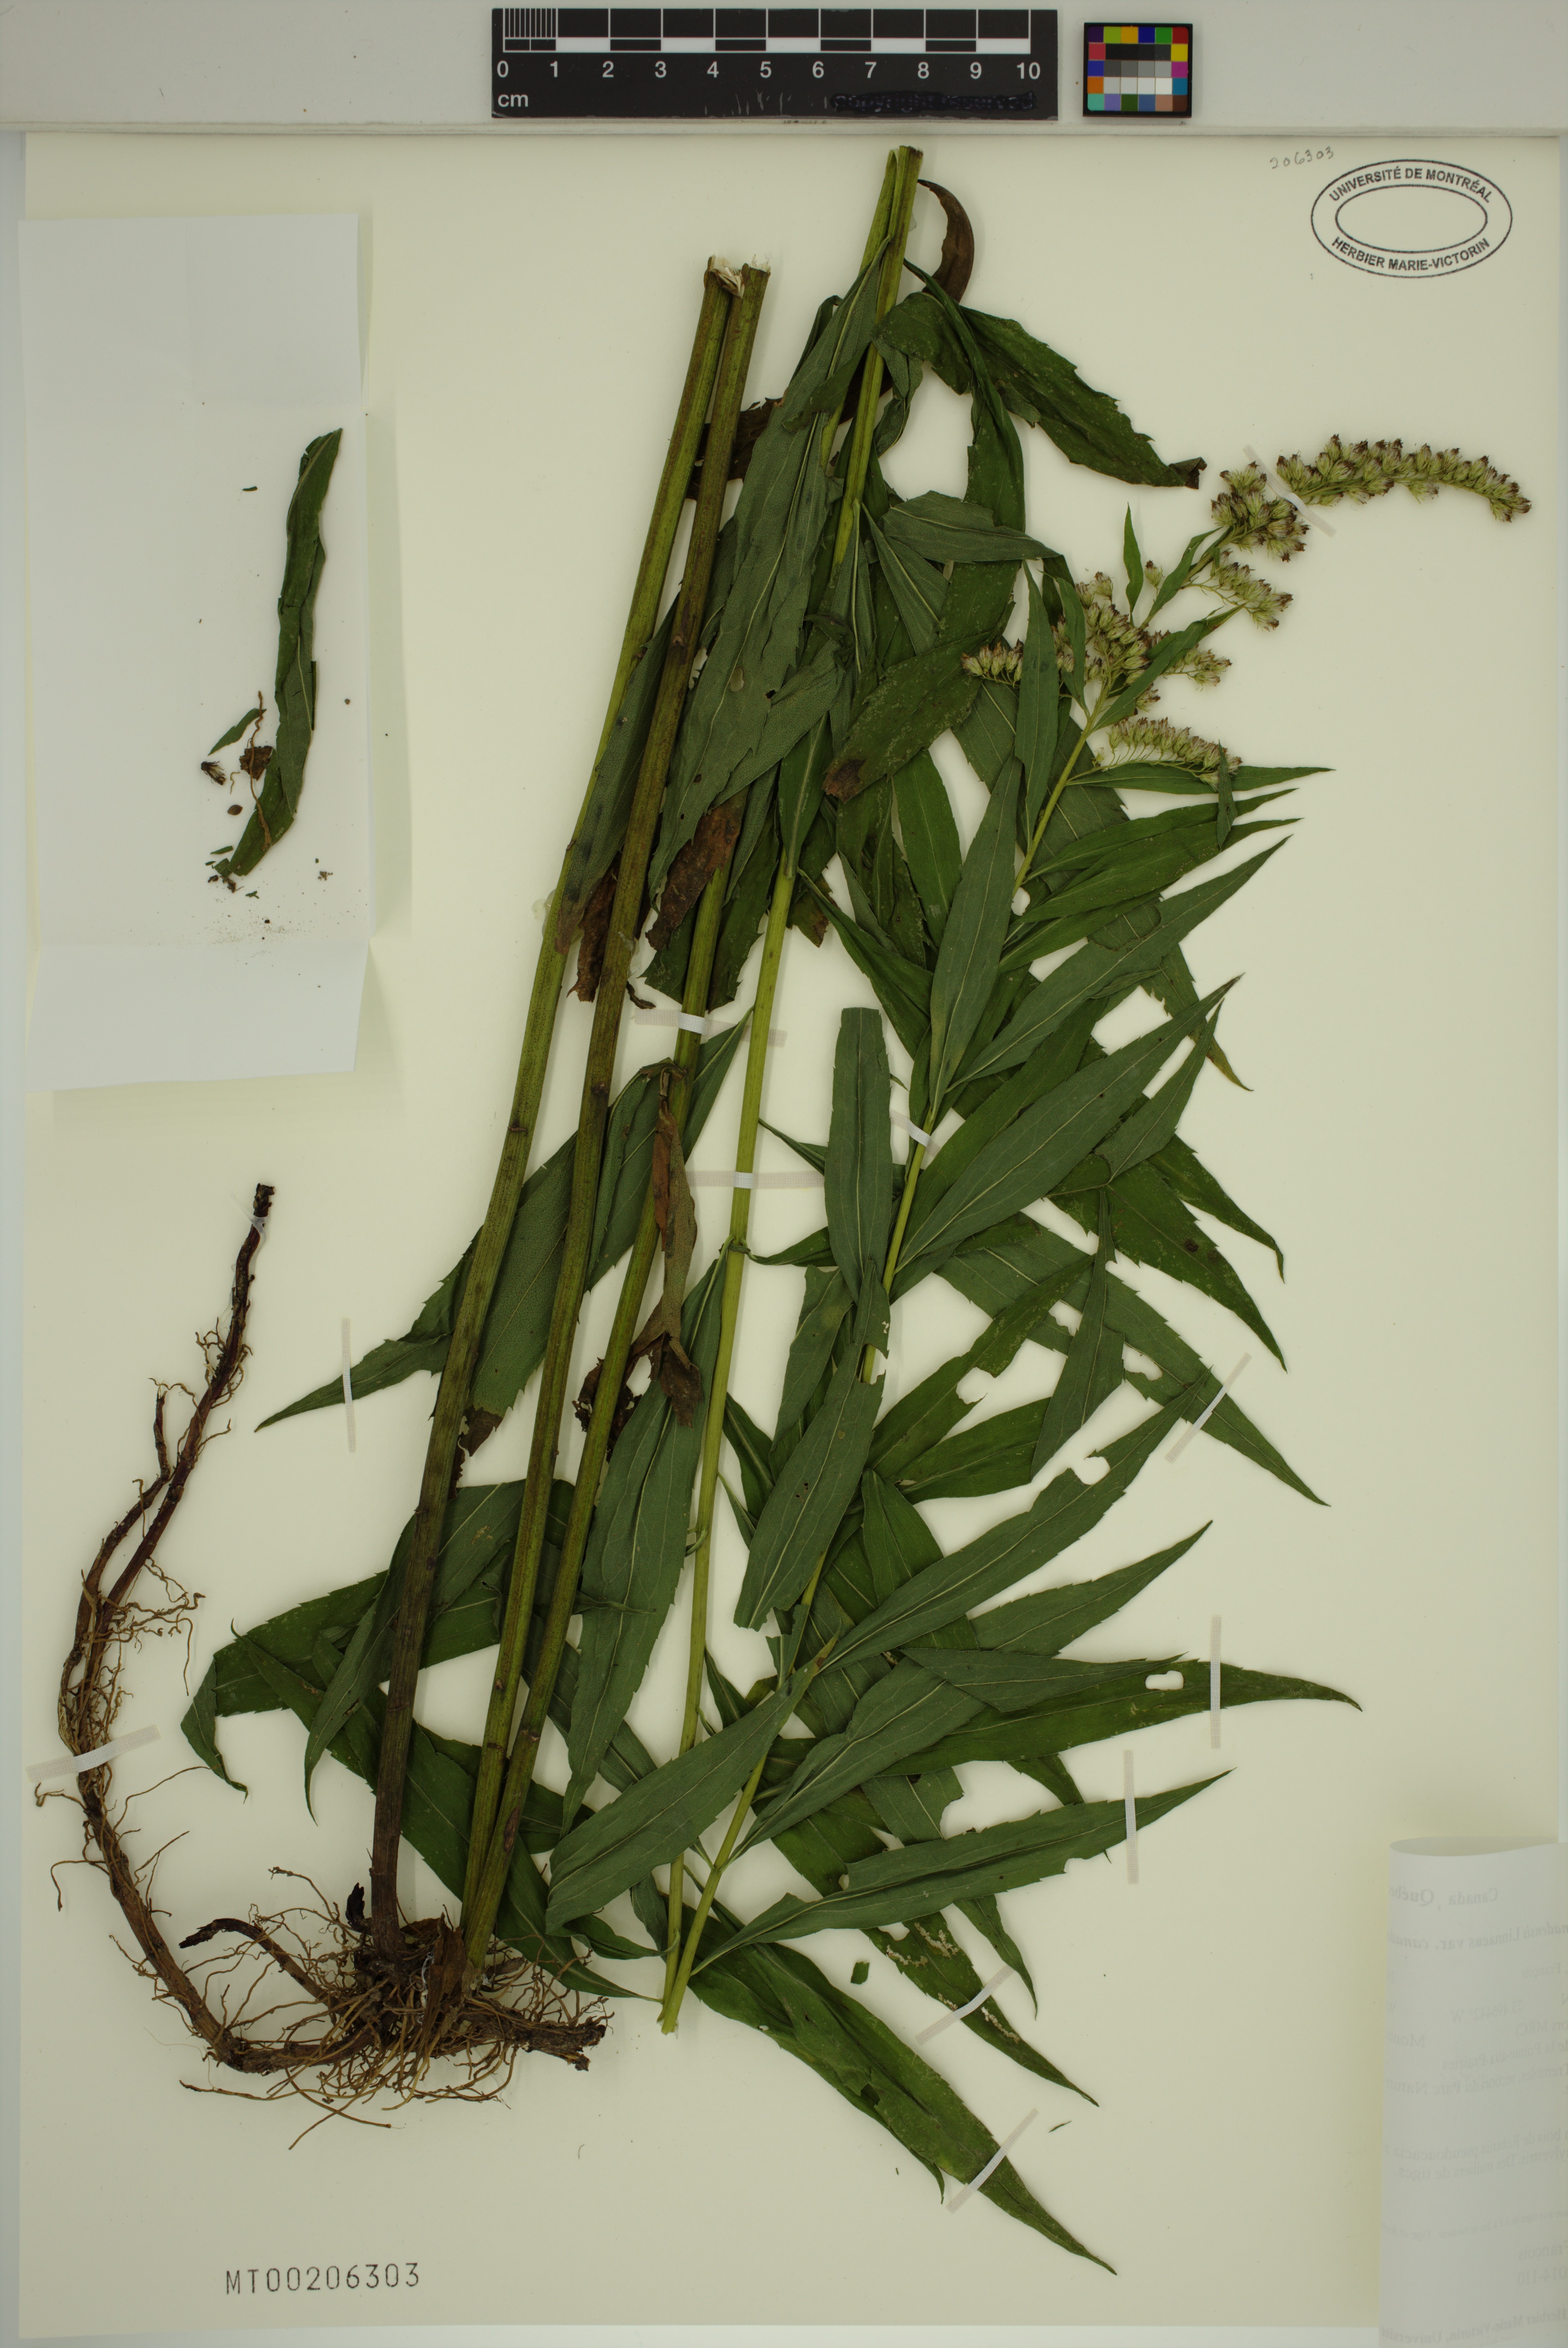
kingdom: Plantae
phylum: Tracheophyta
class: Magnoliopsida
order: Asterales
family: Asteraceae
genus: Solidago
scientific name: Solidago canadensis
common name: Canada goldenrod
